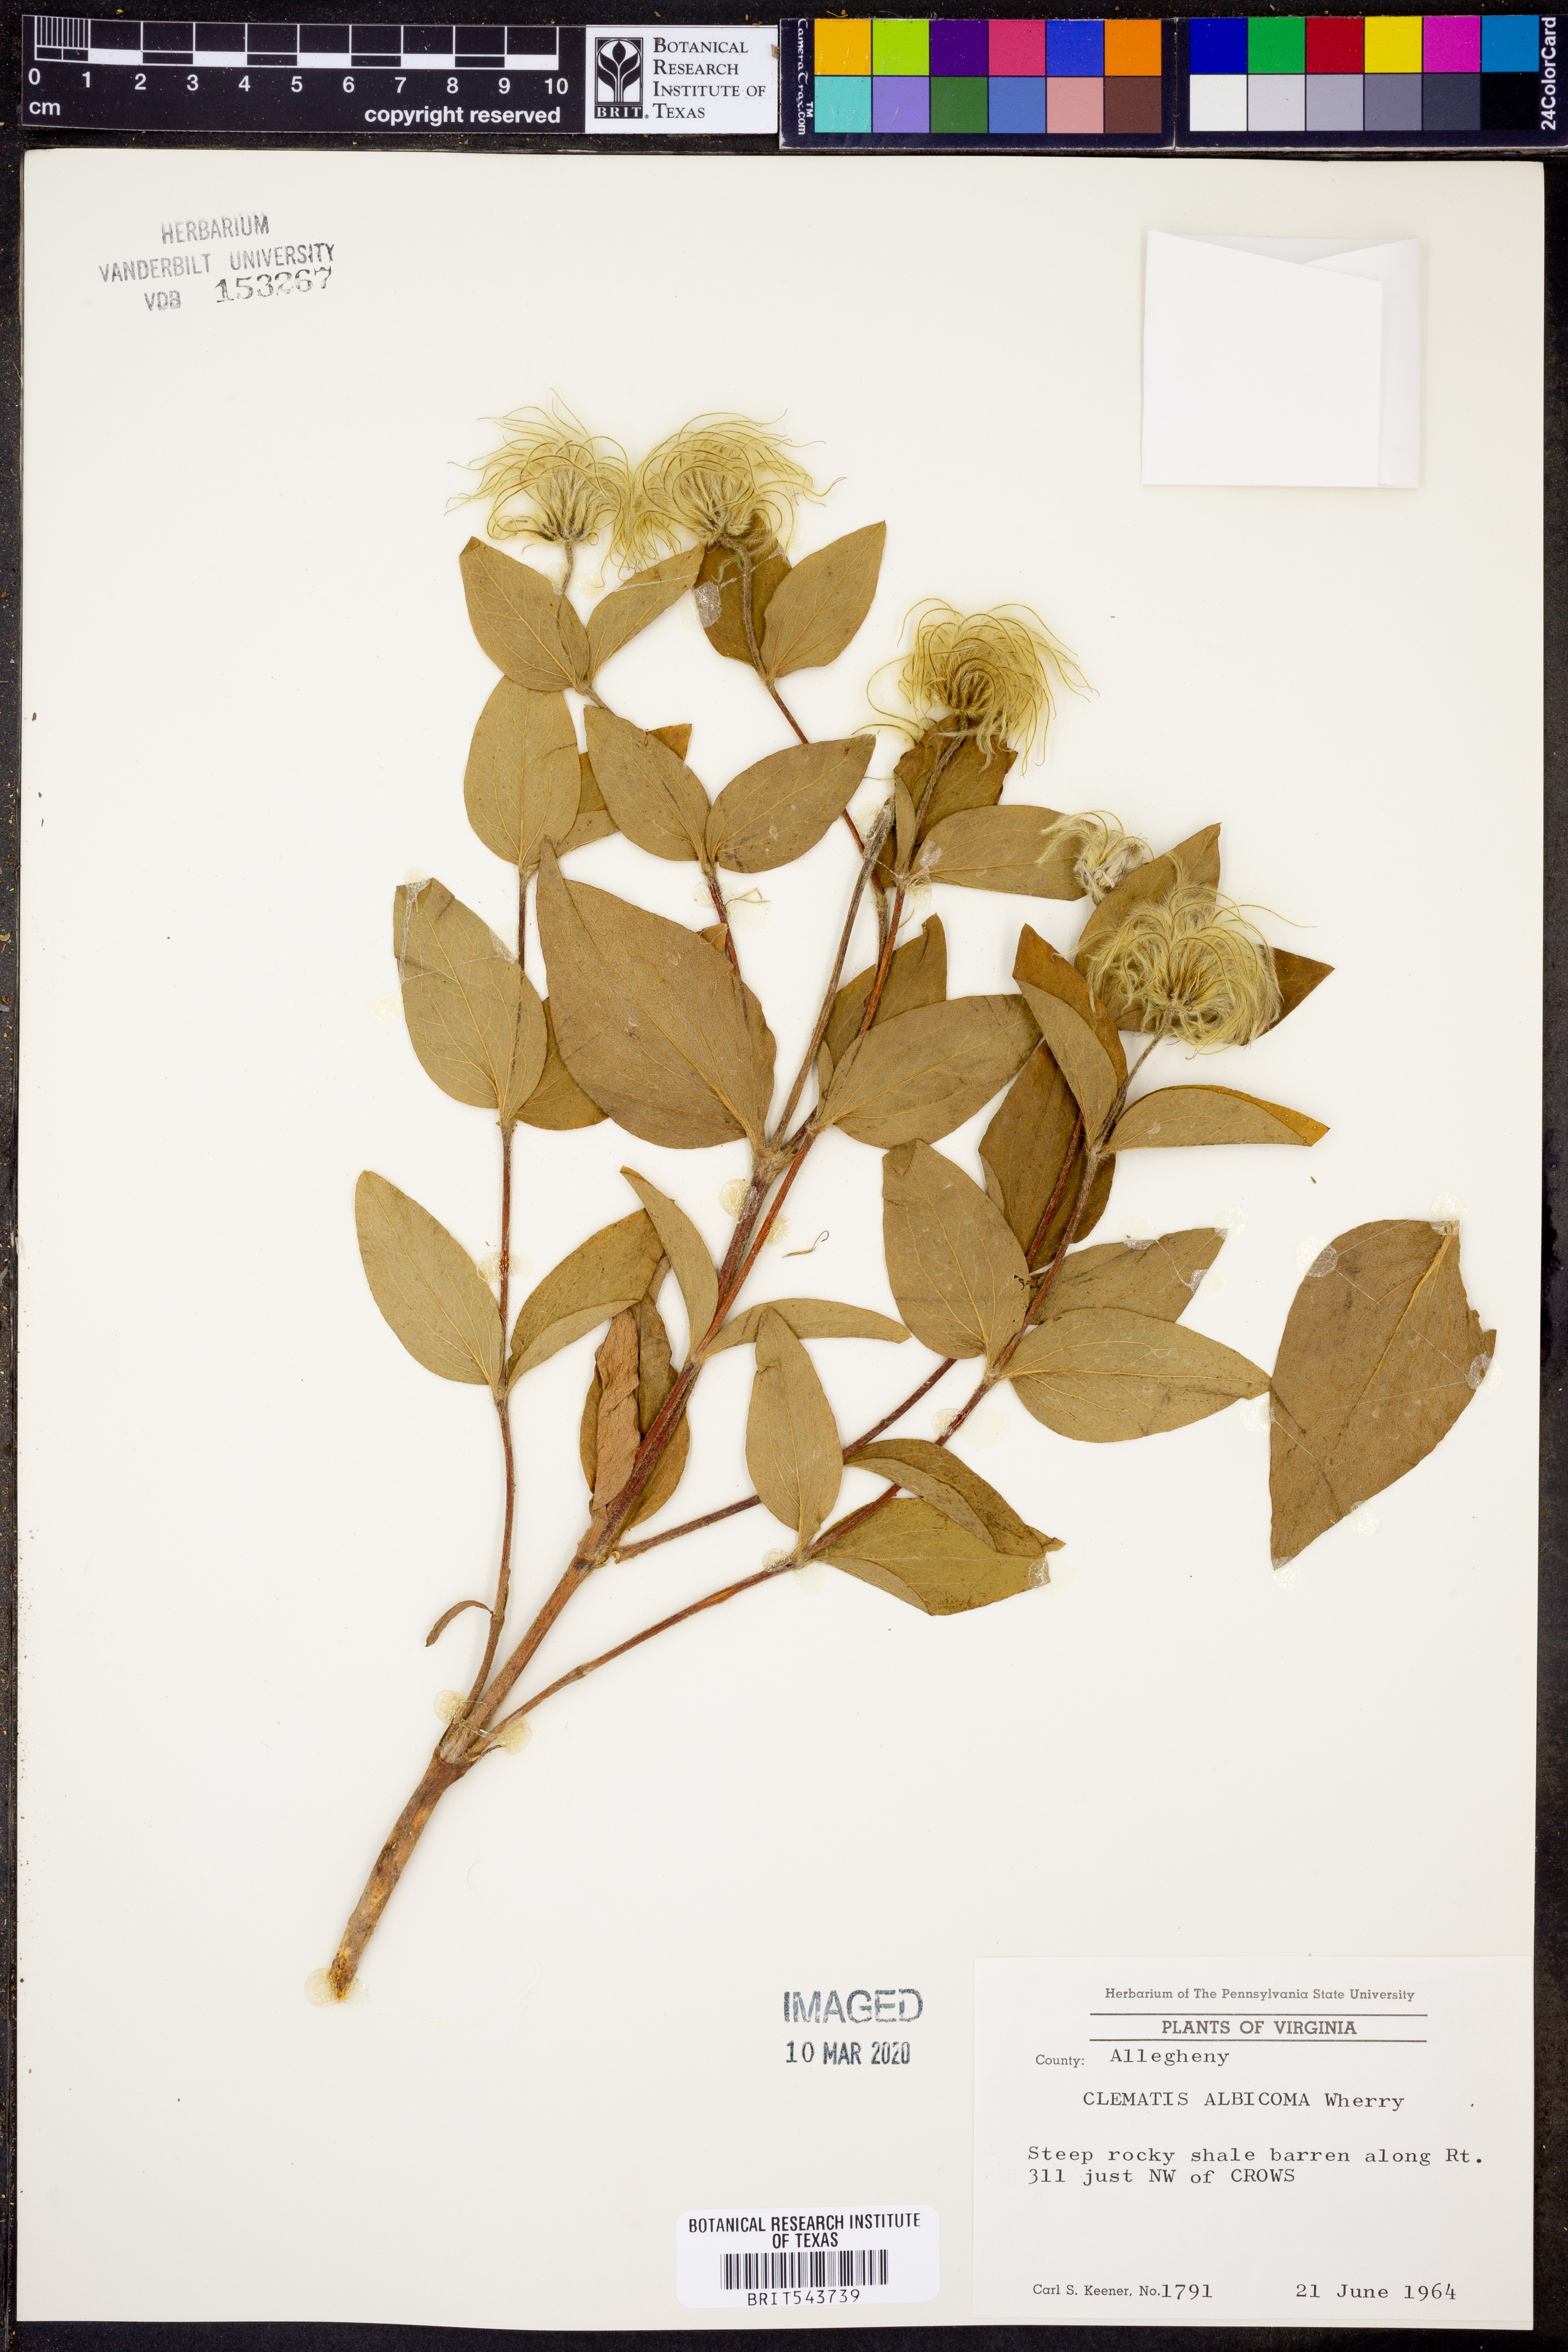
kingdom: Plantae
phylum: Tracheophyta
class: Magnoliopsida
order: Ranunculales
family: Ranunculaceae
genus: Clematis
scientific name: Clematis albicoma
